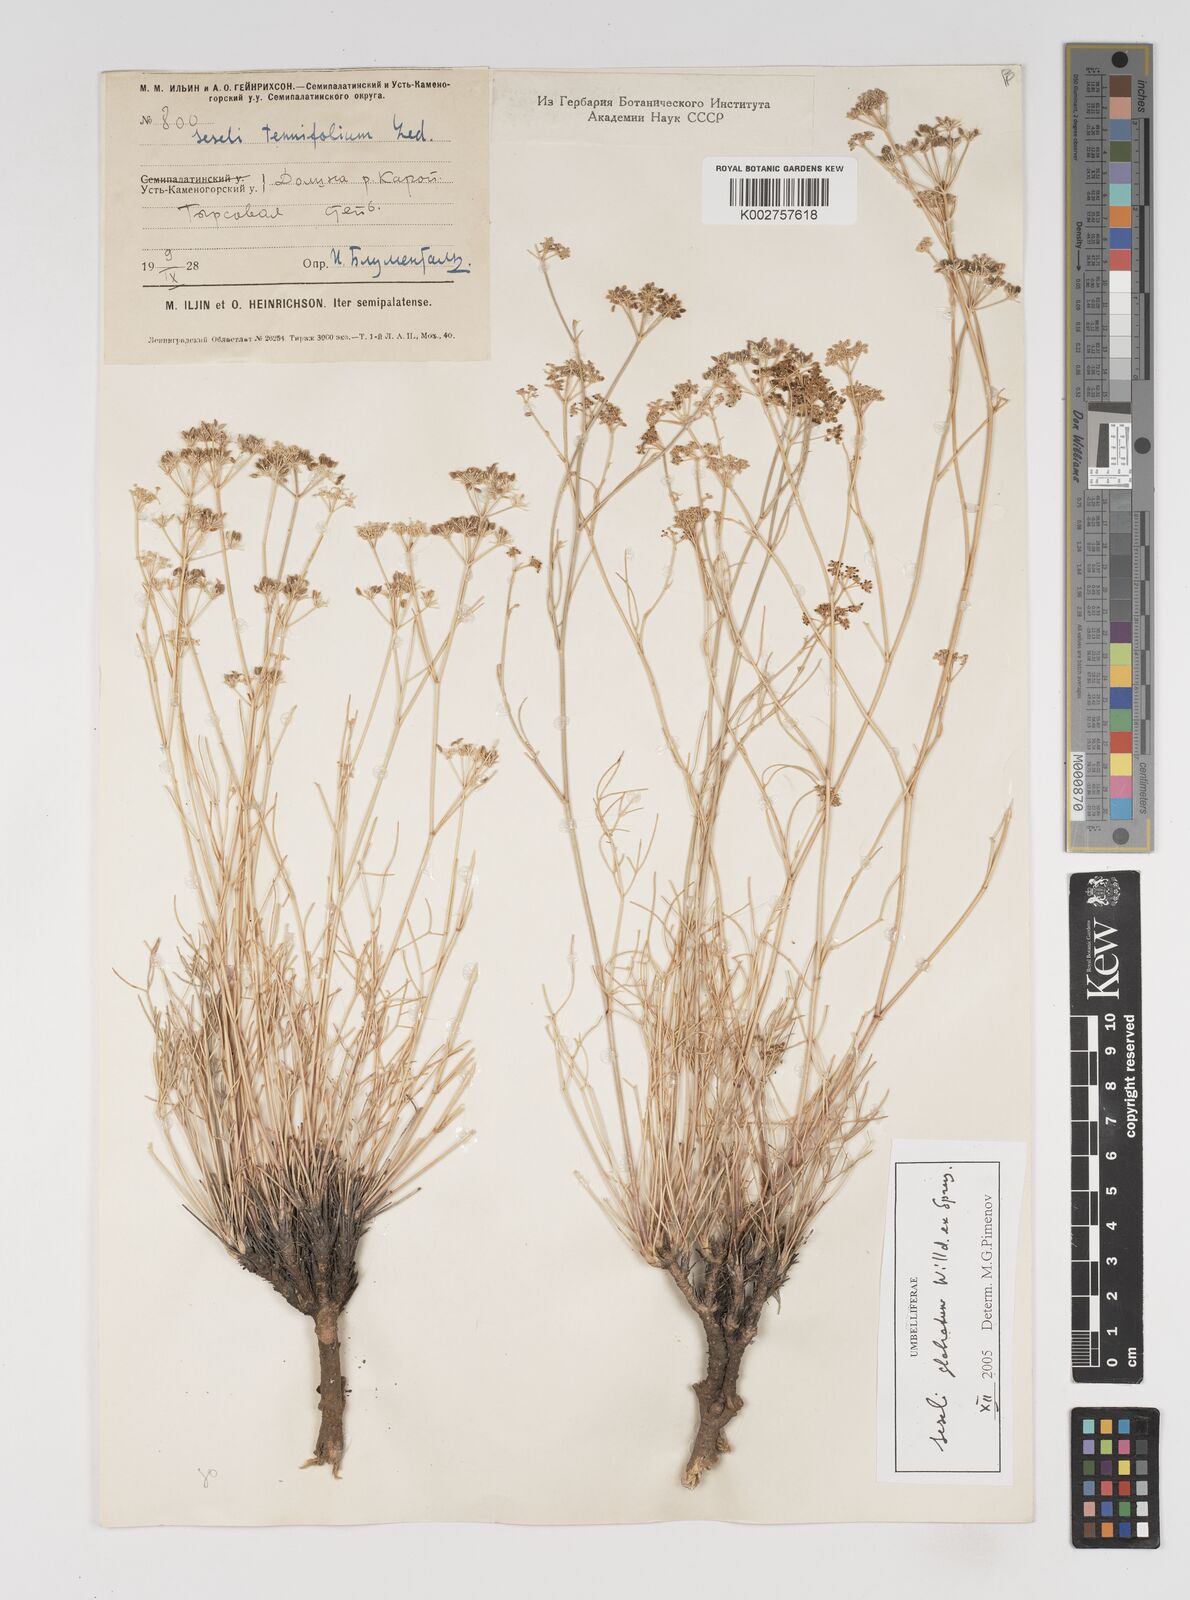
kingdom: Plantae
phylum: Tracheophyta
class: Magnoliopsida
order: Apiales
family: Apiaceae
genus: Seseli
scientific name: Seseli glabratum
